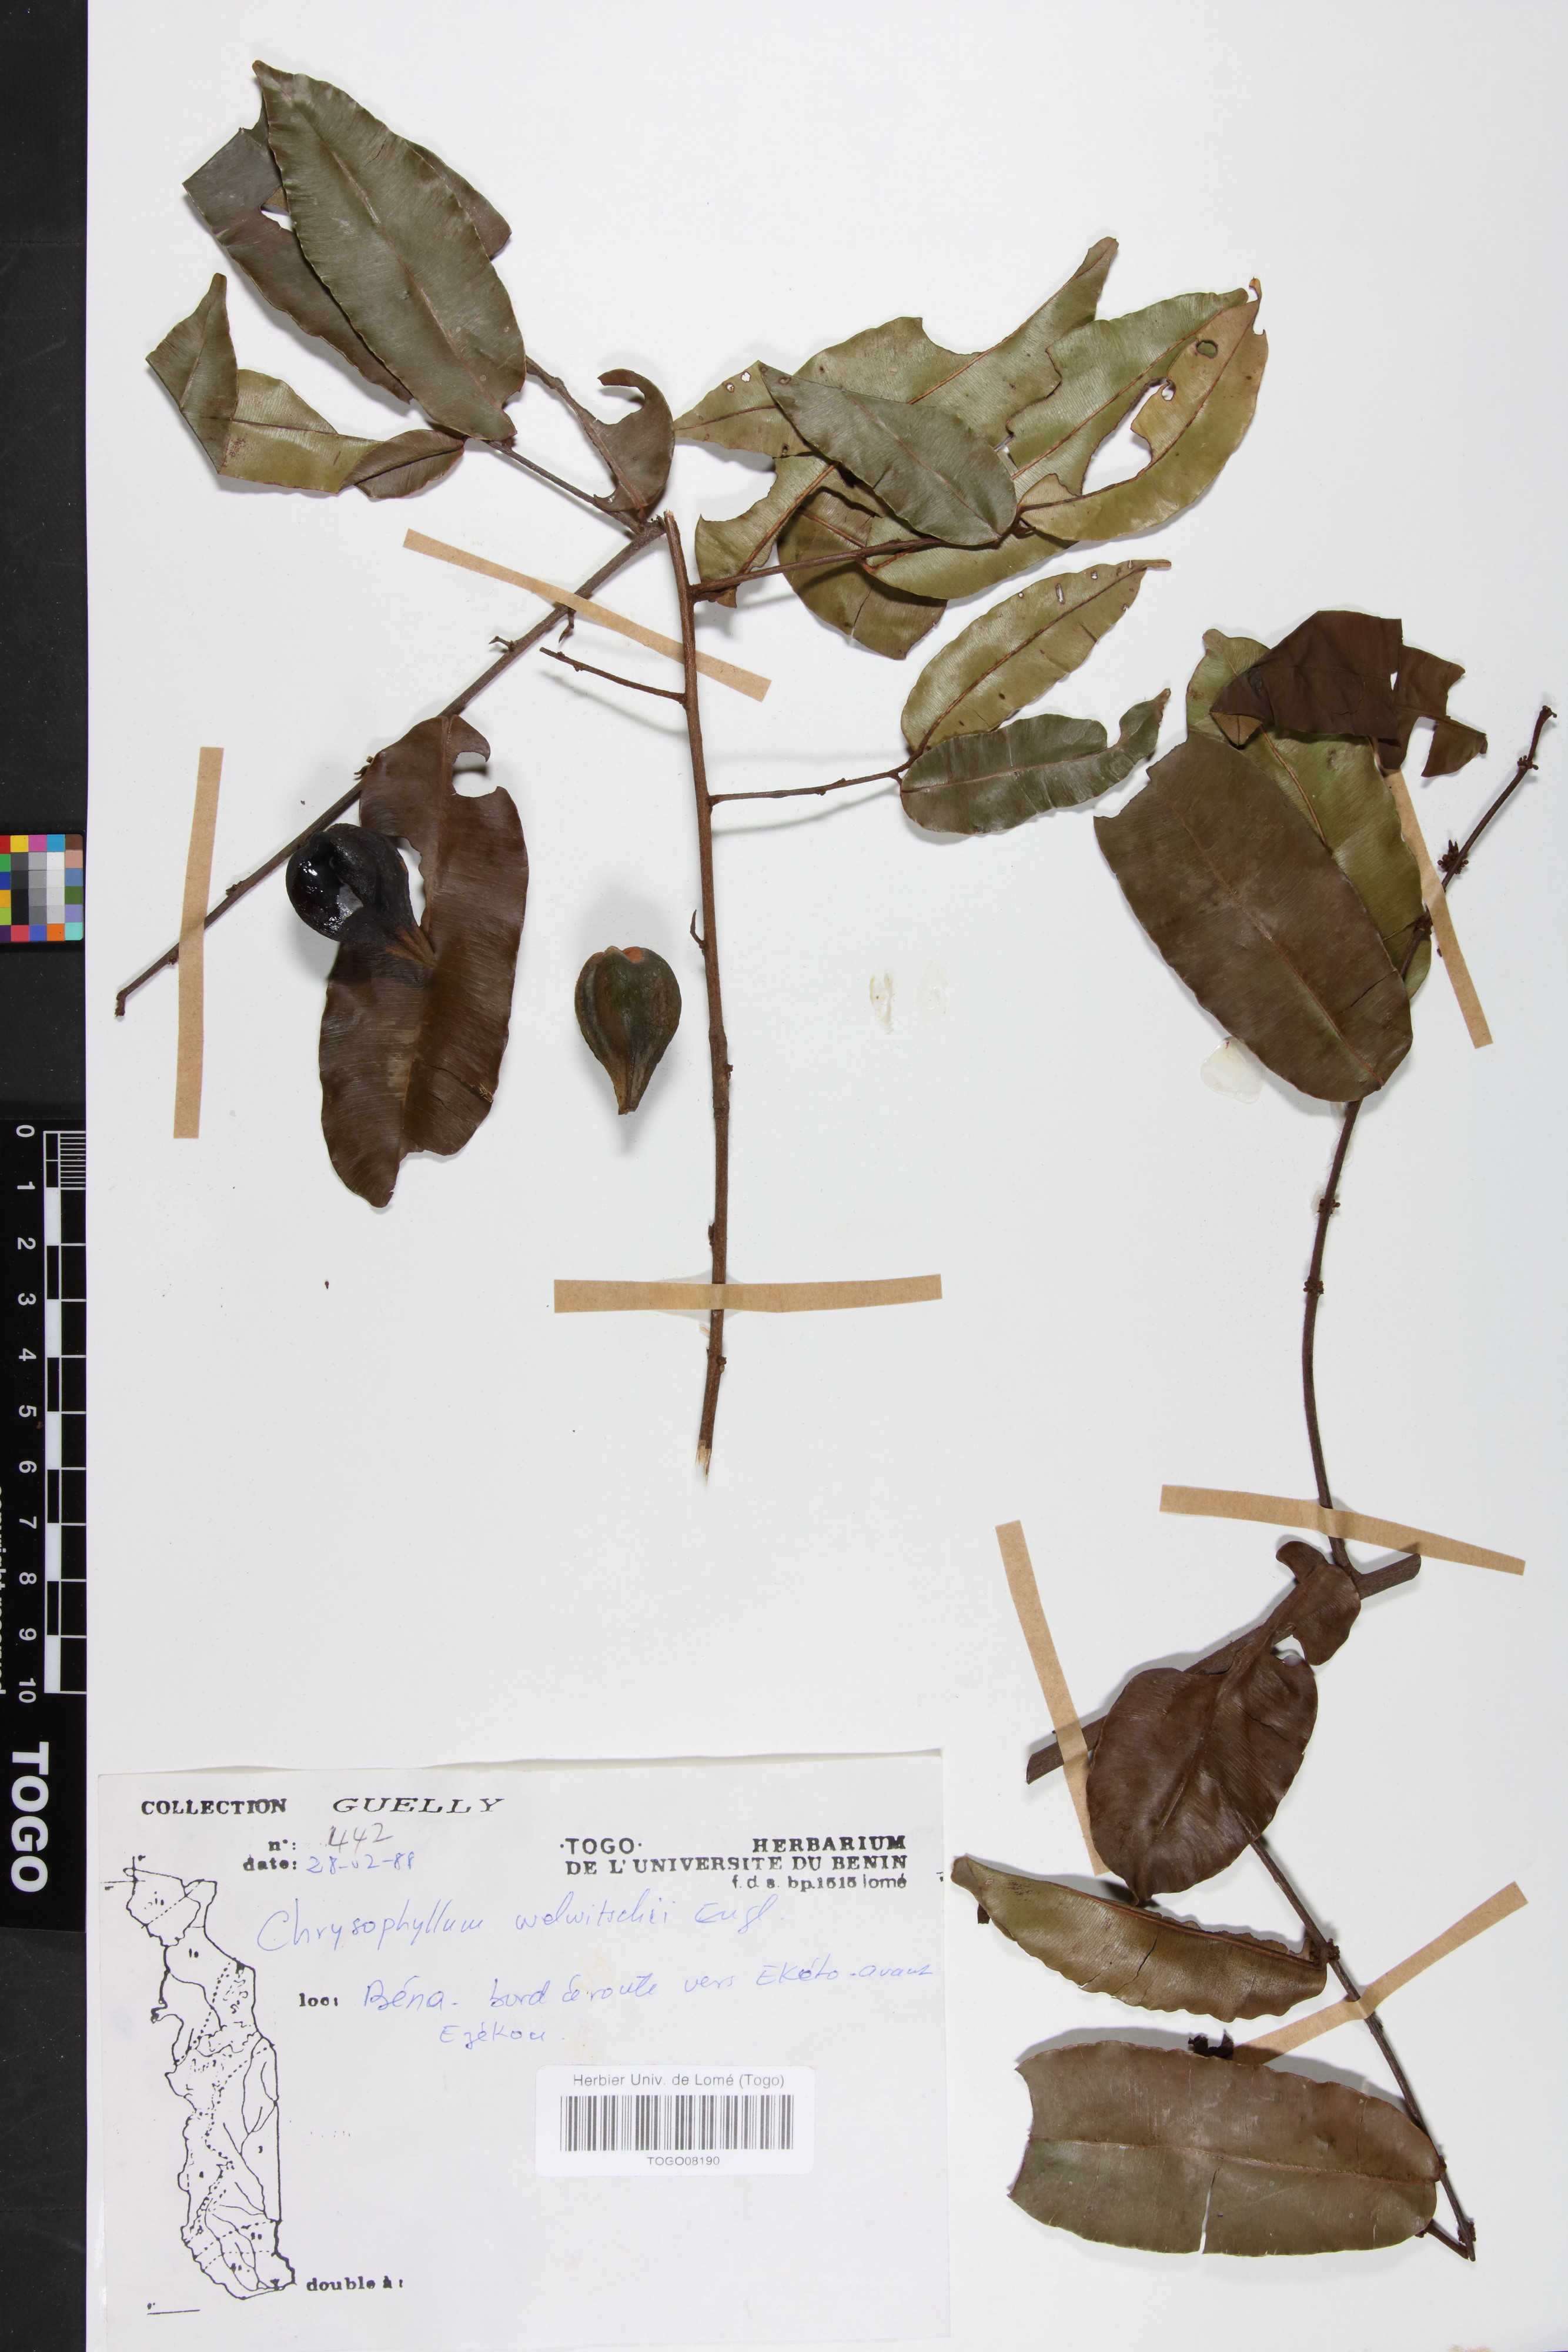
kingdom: Plantae
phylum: Tracheophyta
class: Magnoliopsida
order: Ericales
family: Sapotaceae
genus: Donella
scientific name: Donella welwitschii
